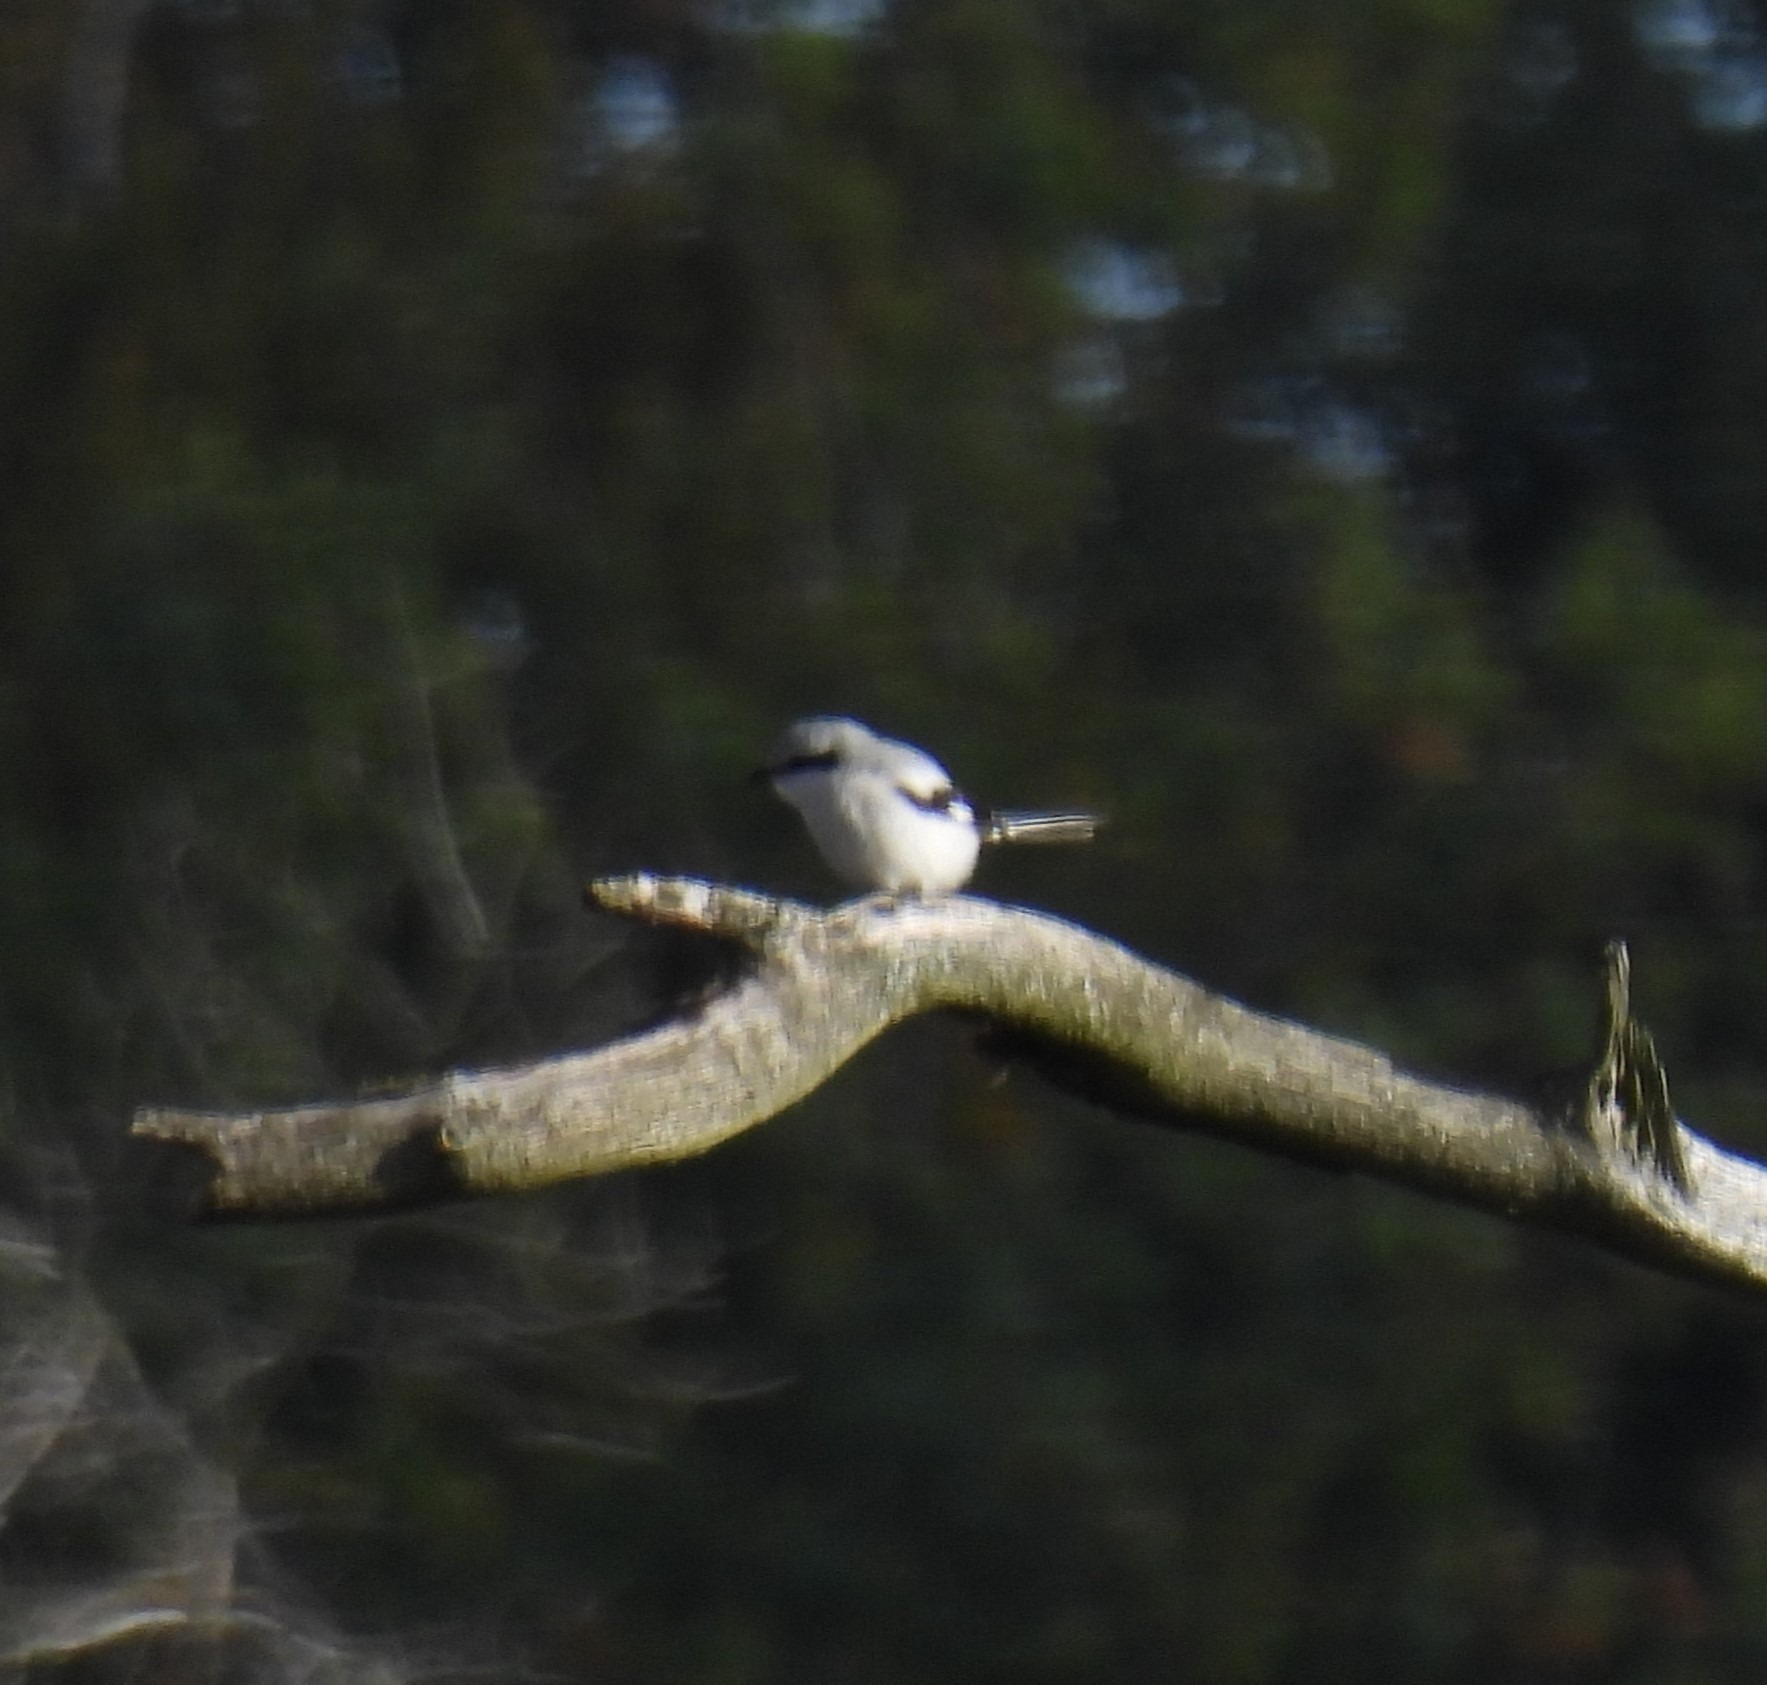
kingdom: Animalia
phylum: Chordata
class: Aves
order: Passeriformes
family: Laniidae
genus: Lanius
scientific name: Lanius excubitor
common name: Stor tornskade
